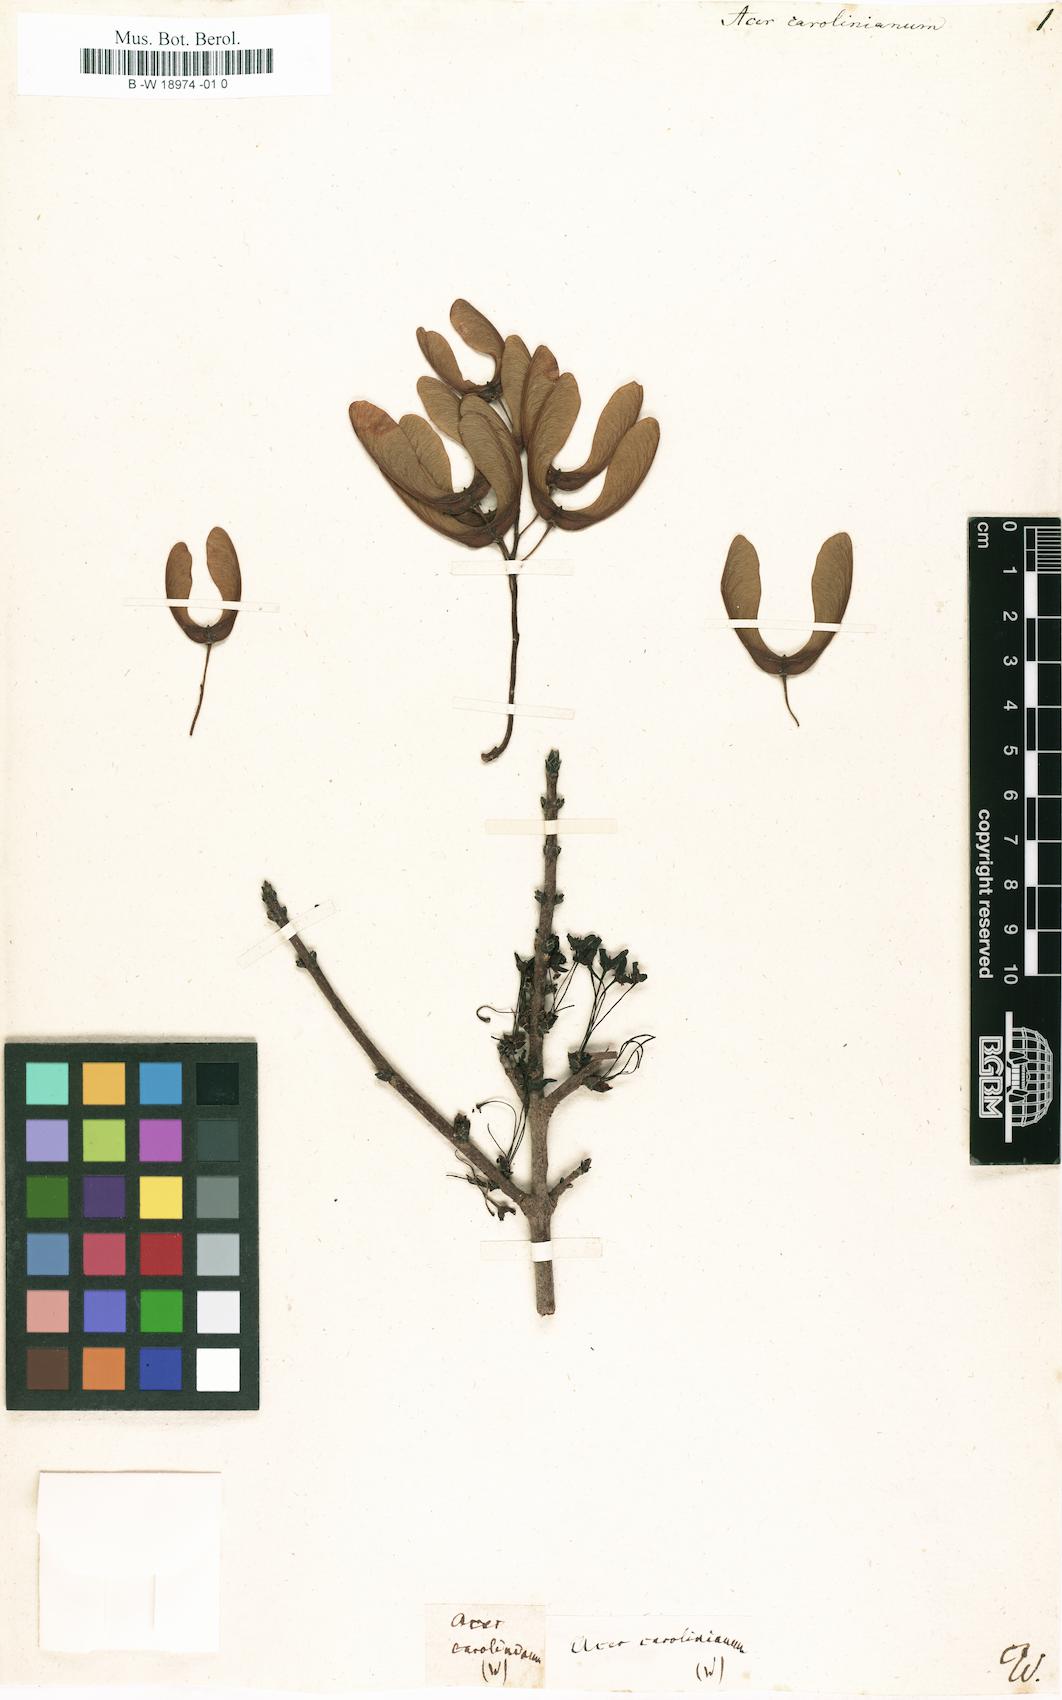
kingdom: Plantae
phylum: Tracheophyta
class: Magnoliopsida
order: Sapindales
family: Sapindaceae
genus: Acer
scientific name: Acer rubrum
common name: Red maple
